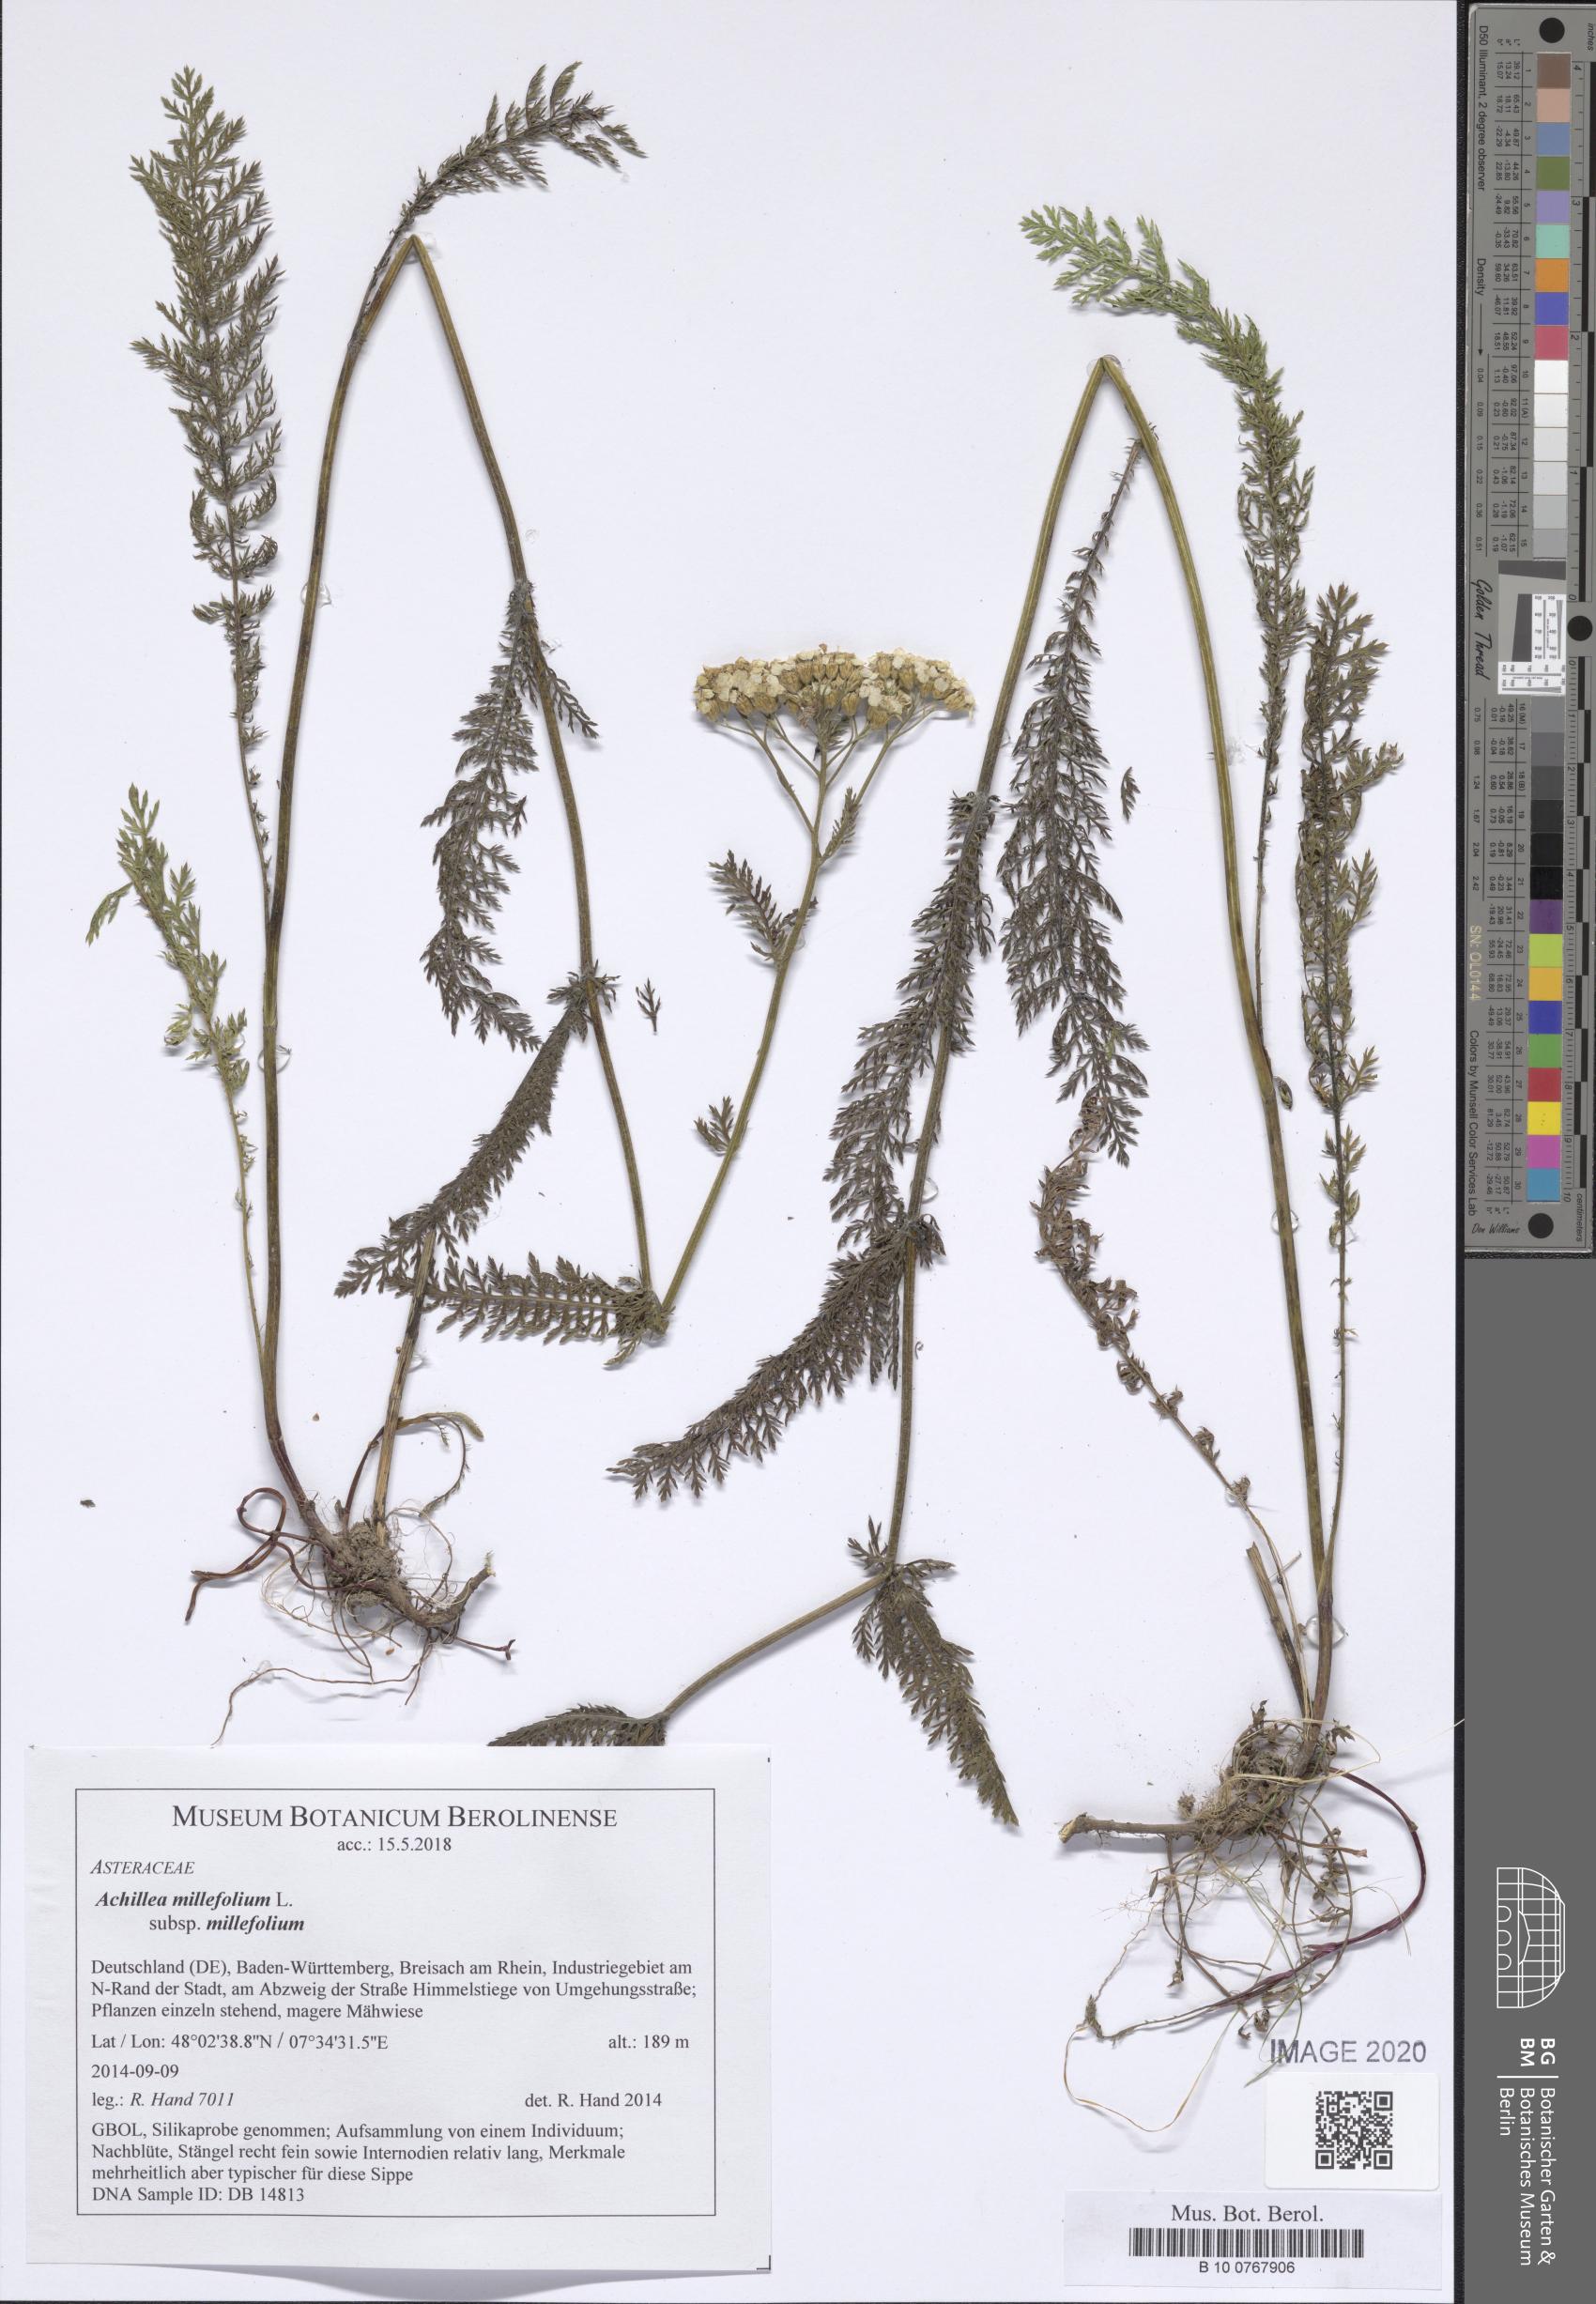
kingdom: Plantae
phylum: Tracheophyta
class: Magnoliopsida
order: Asterales
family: Asteraceae
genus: Achillea
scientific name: Achillea millefolium
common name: Yarrow
